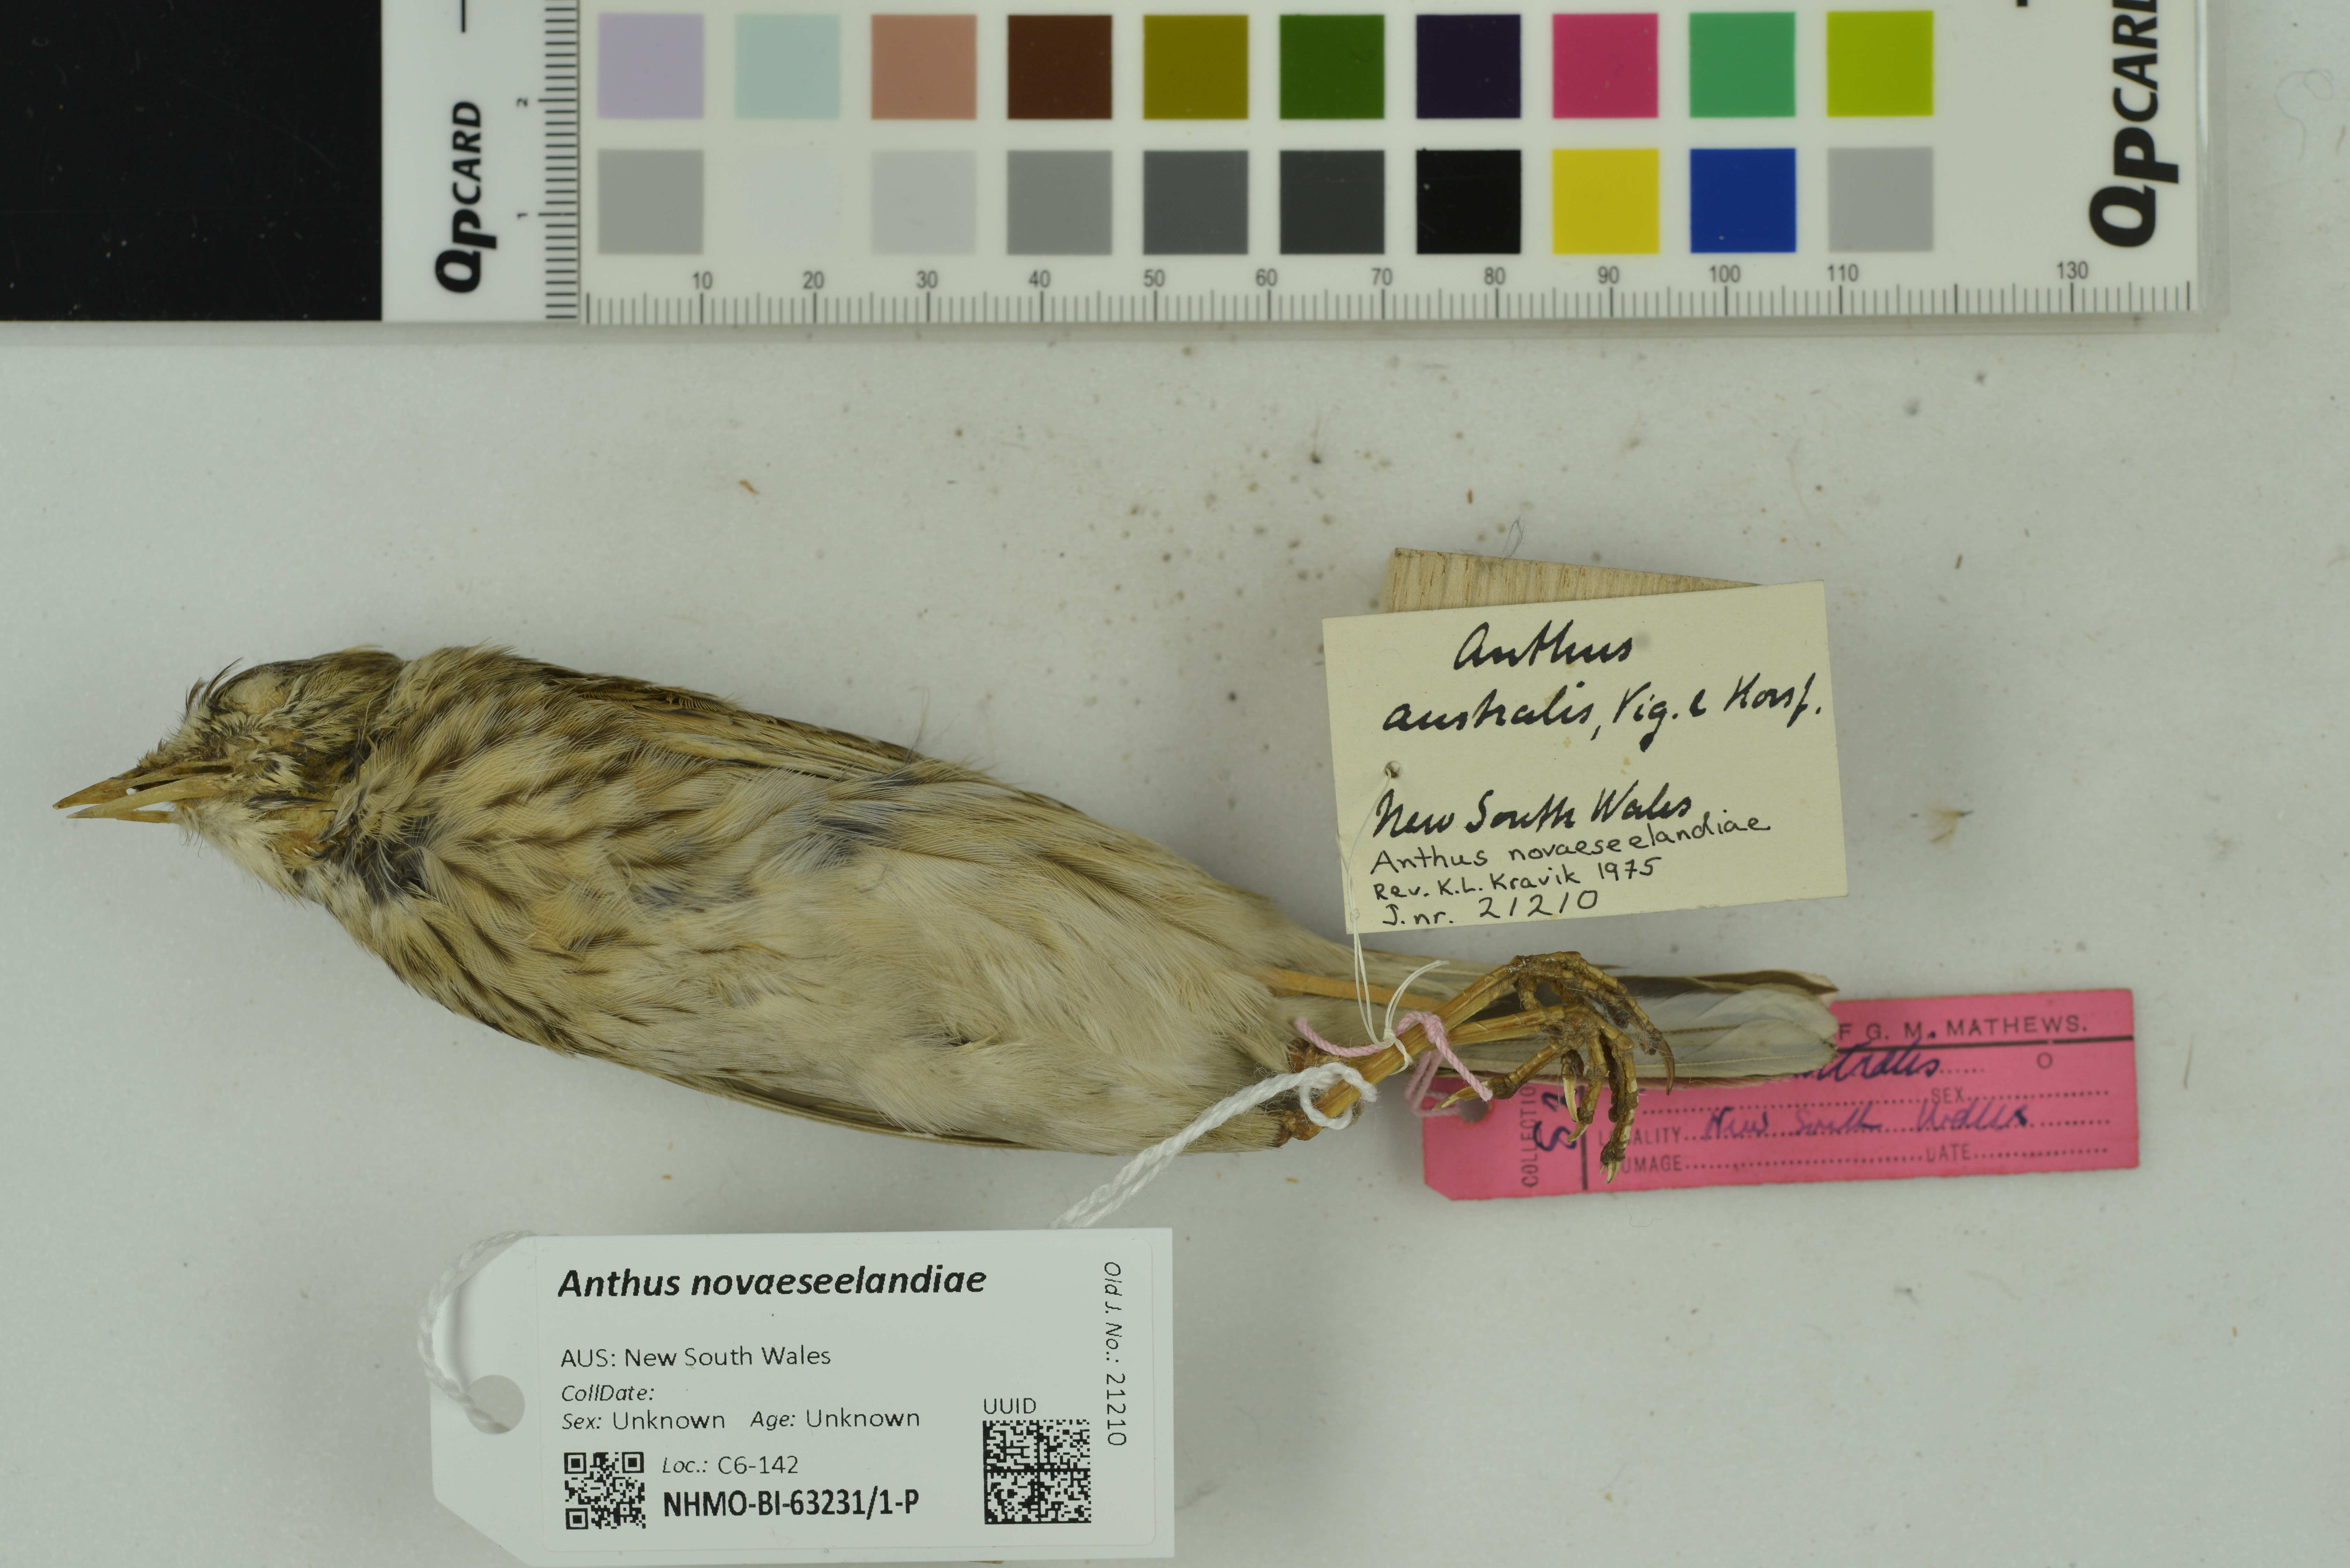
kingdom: Animalia
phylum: Chordata
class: Aves
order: Passeriformes
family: Motacillidae
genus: Anthus
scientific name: Anthus novaeseelandiae
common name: New zealand pipit
